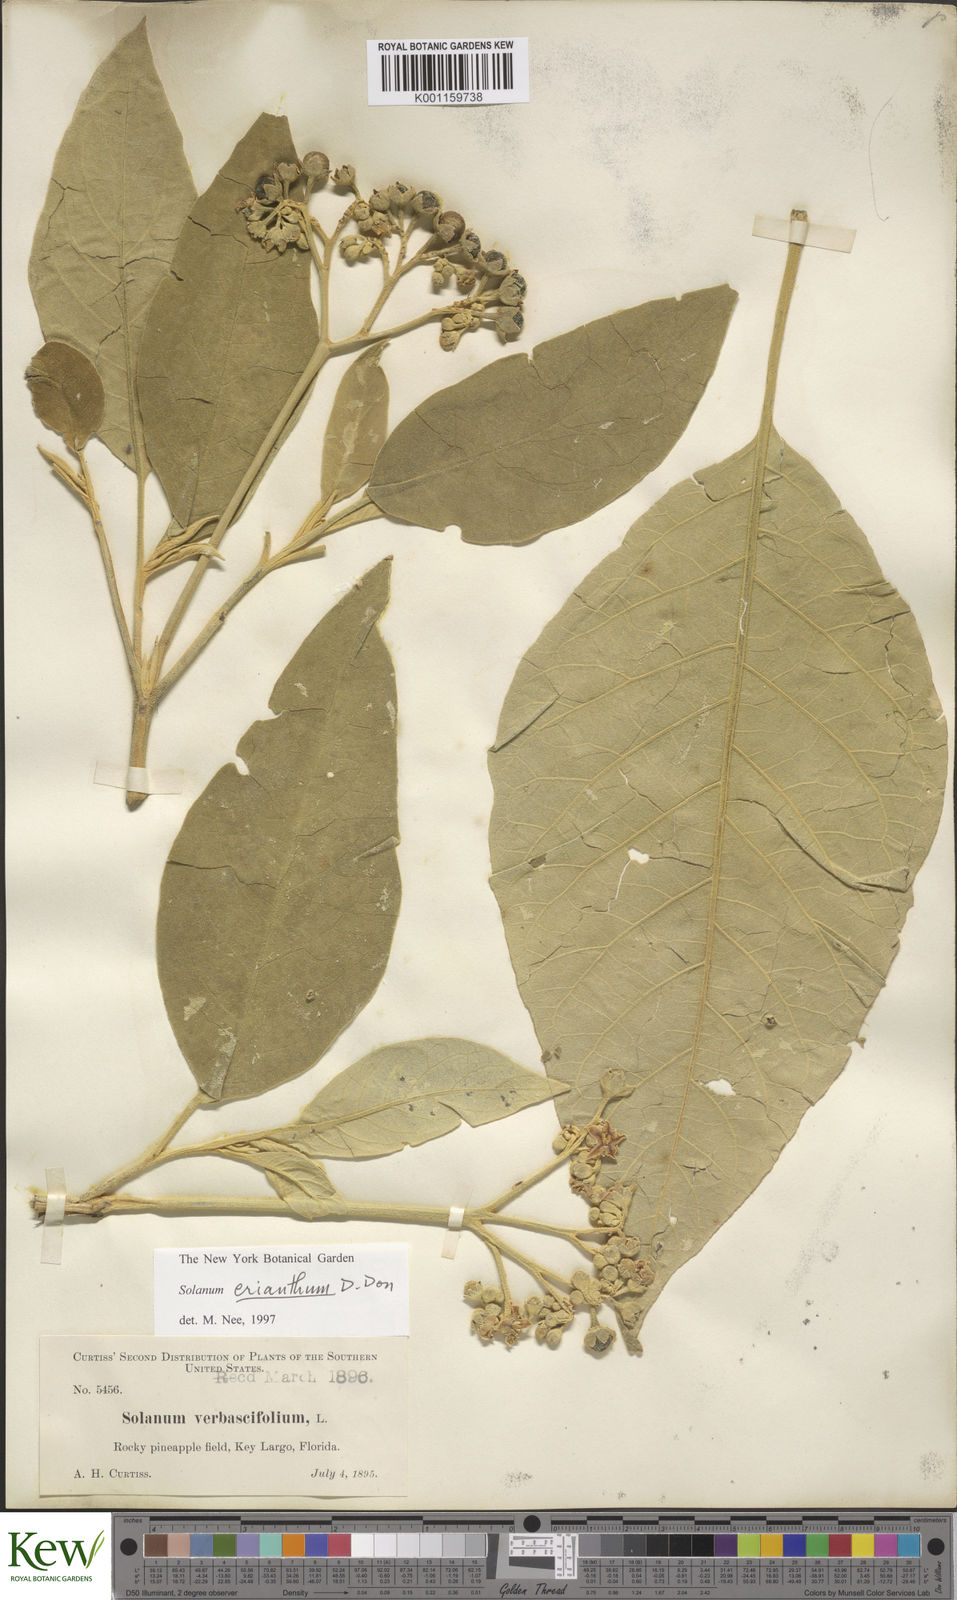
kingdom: Plantae
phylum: Tracheophyta
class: Magnoliopsida
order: Solanales
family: Solanaceae
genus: Solanum
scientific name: Solanum donianum
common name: Mullein nightshade
